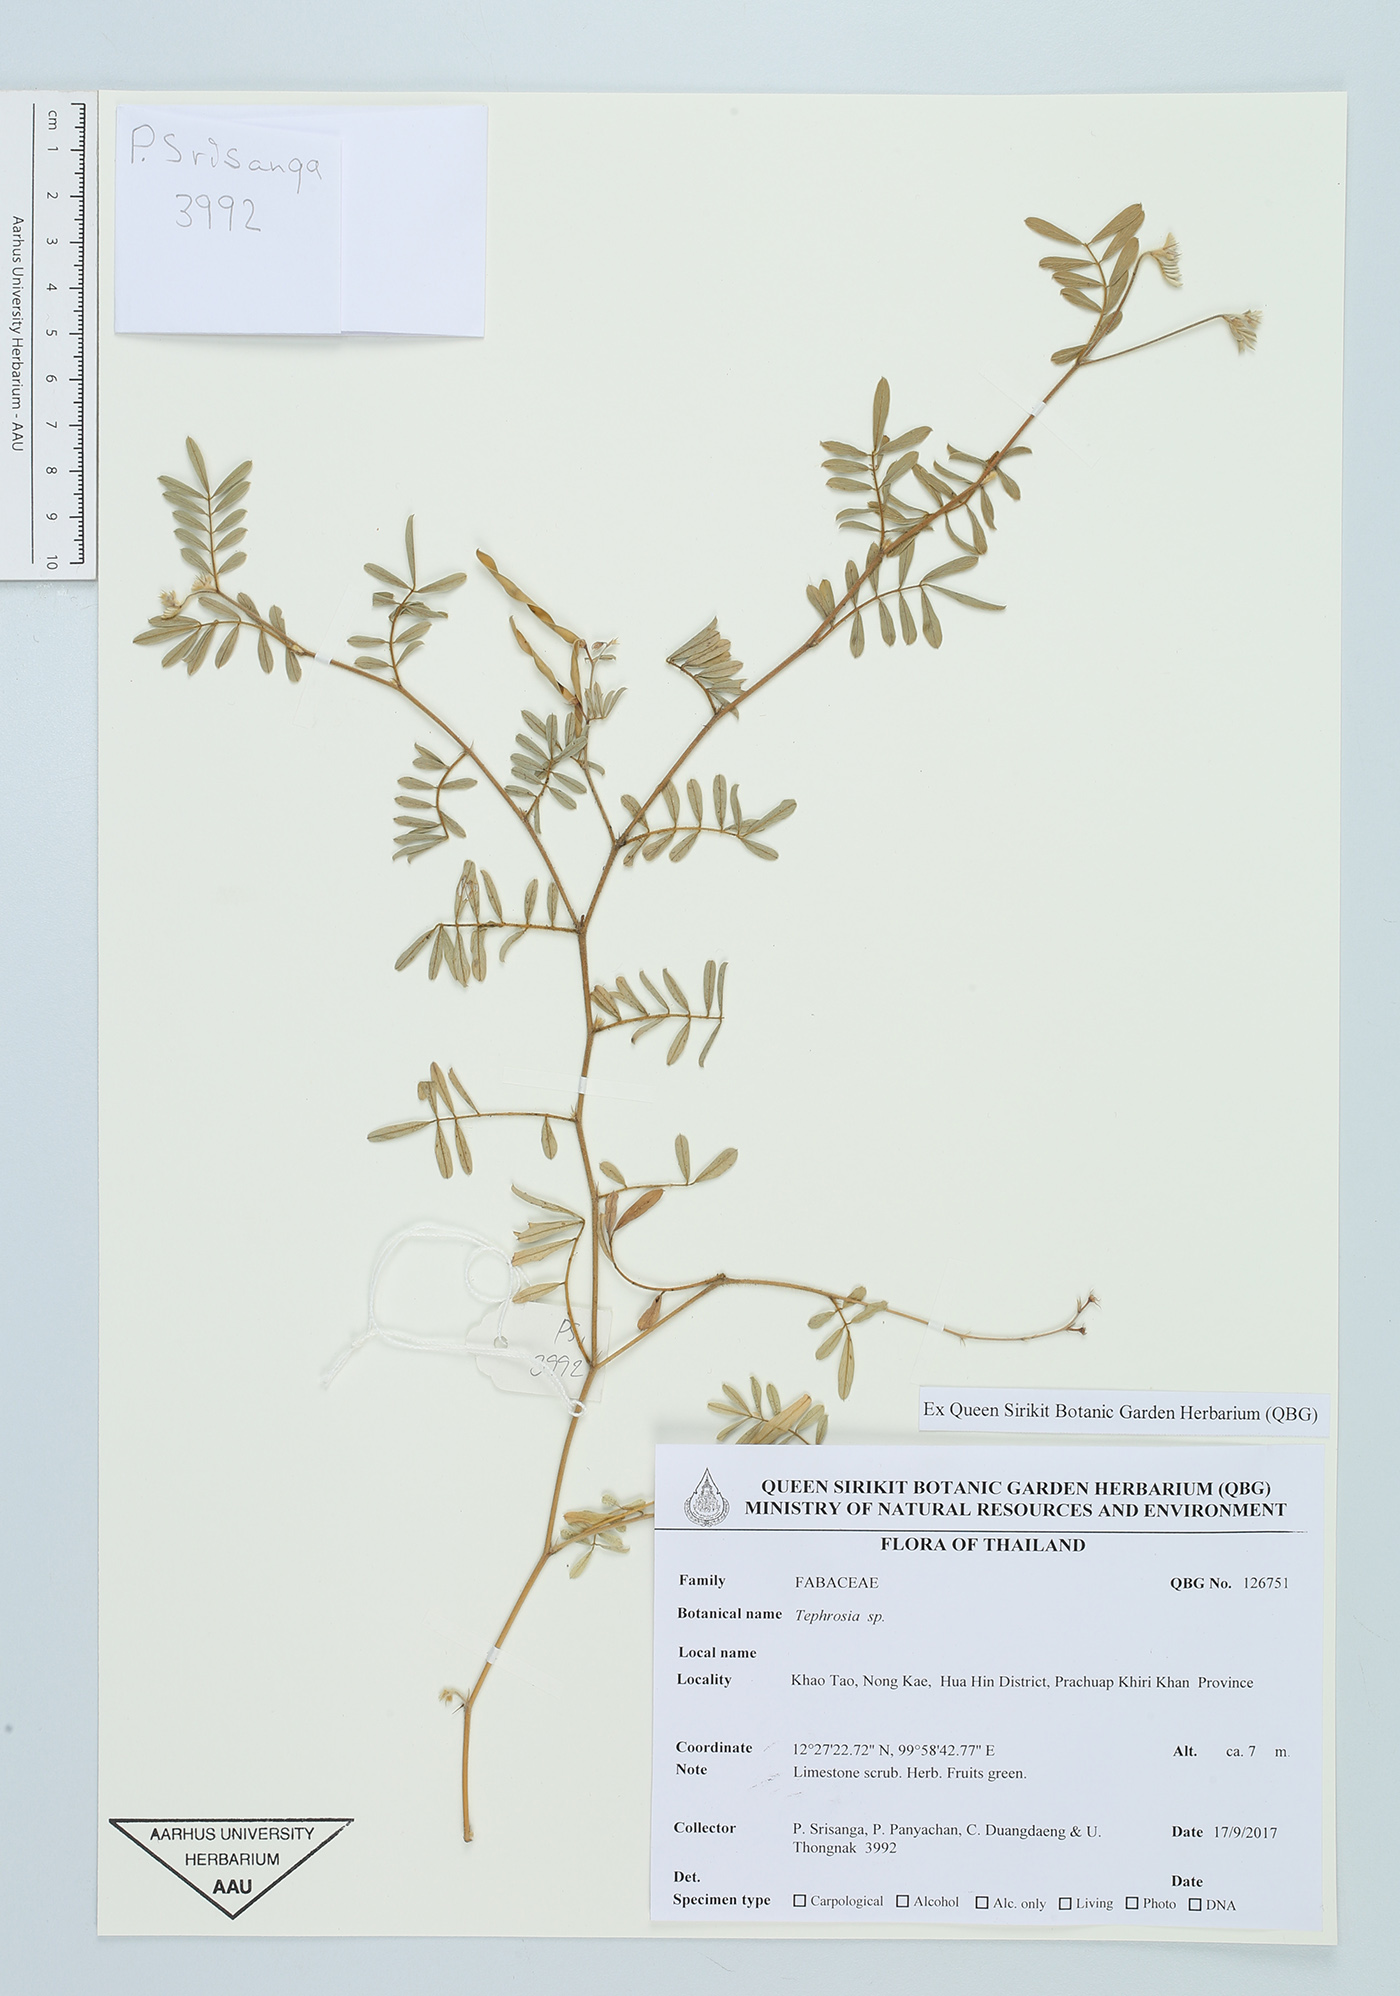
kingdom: Plantae
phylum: Tracheophyta
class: Magnoliopsida
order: Fabales
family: Fabaceae
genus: Tephrosia
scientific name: Tephrosia
